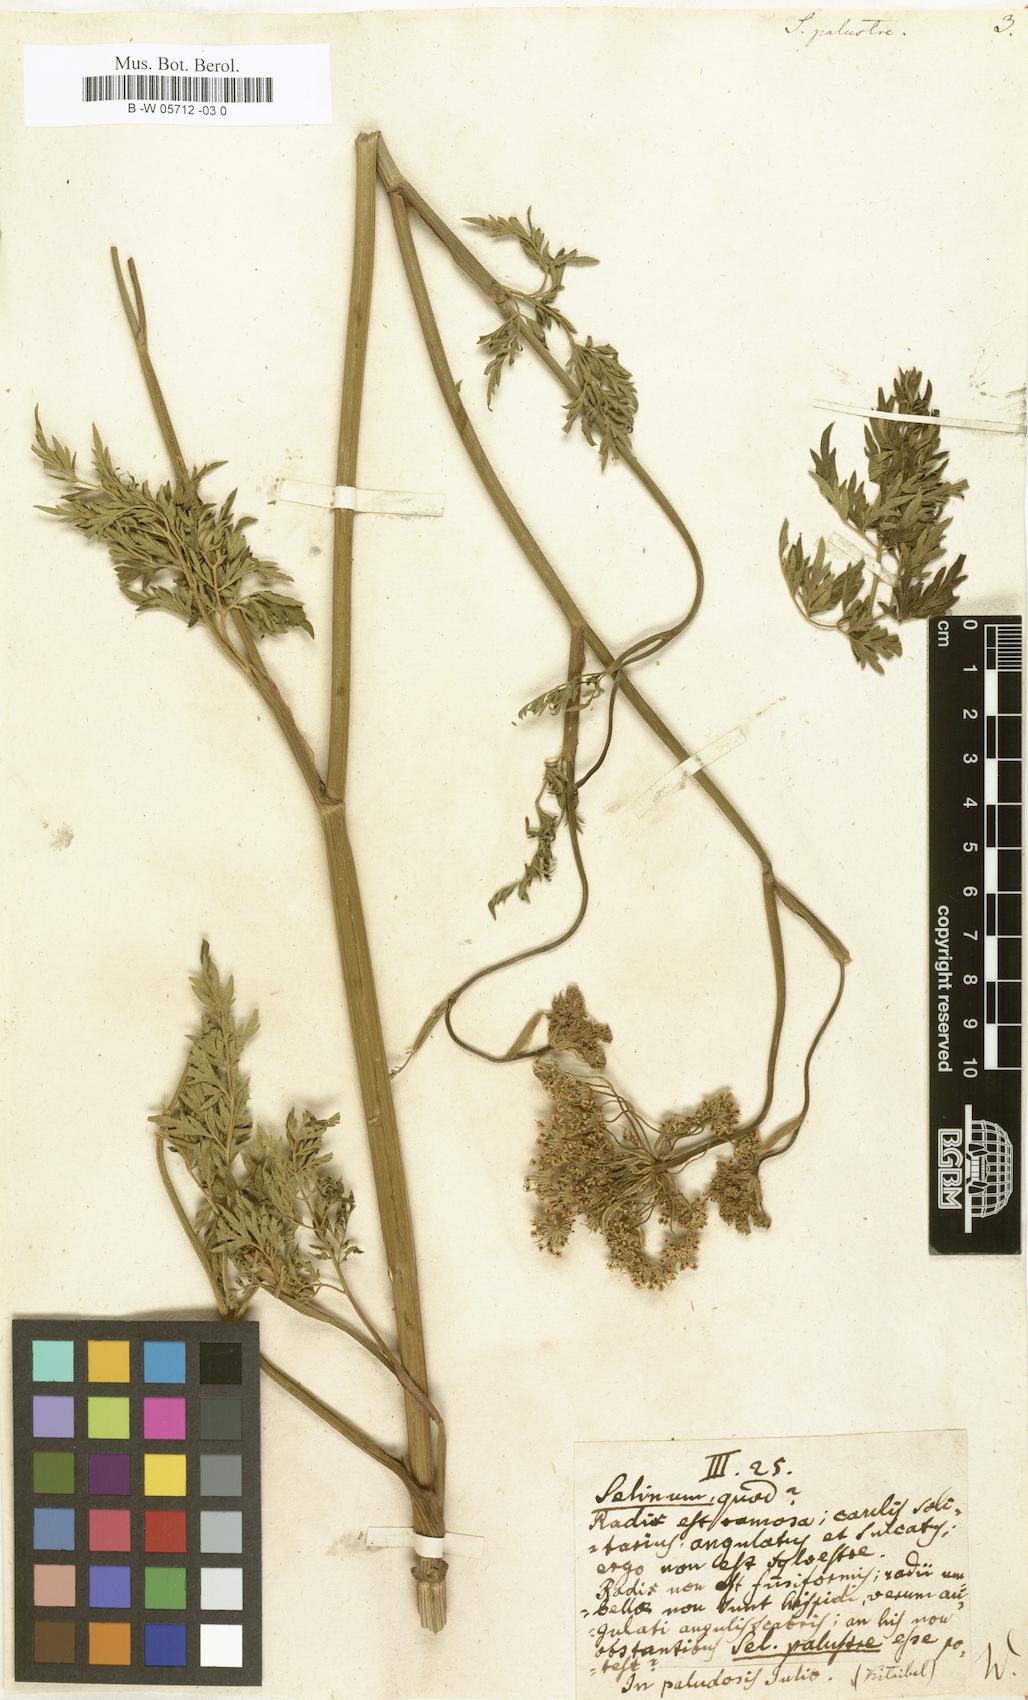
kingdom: Plantae
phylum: Tracheophyta
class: Magnoliopsida
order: Apiales
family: Apiaceae
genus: Selinum
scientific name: Selinum palustre
